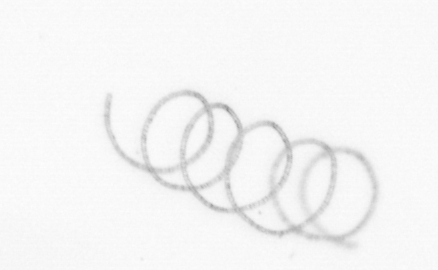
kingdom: Chromista
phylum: Ochrophyta
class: Bacillariophyceae
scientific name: Bacillariophyceae
